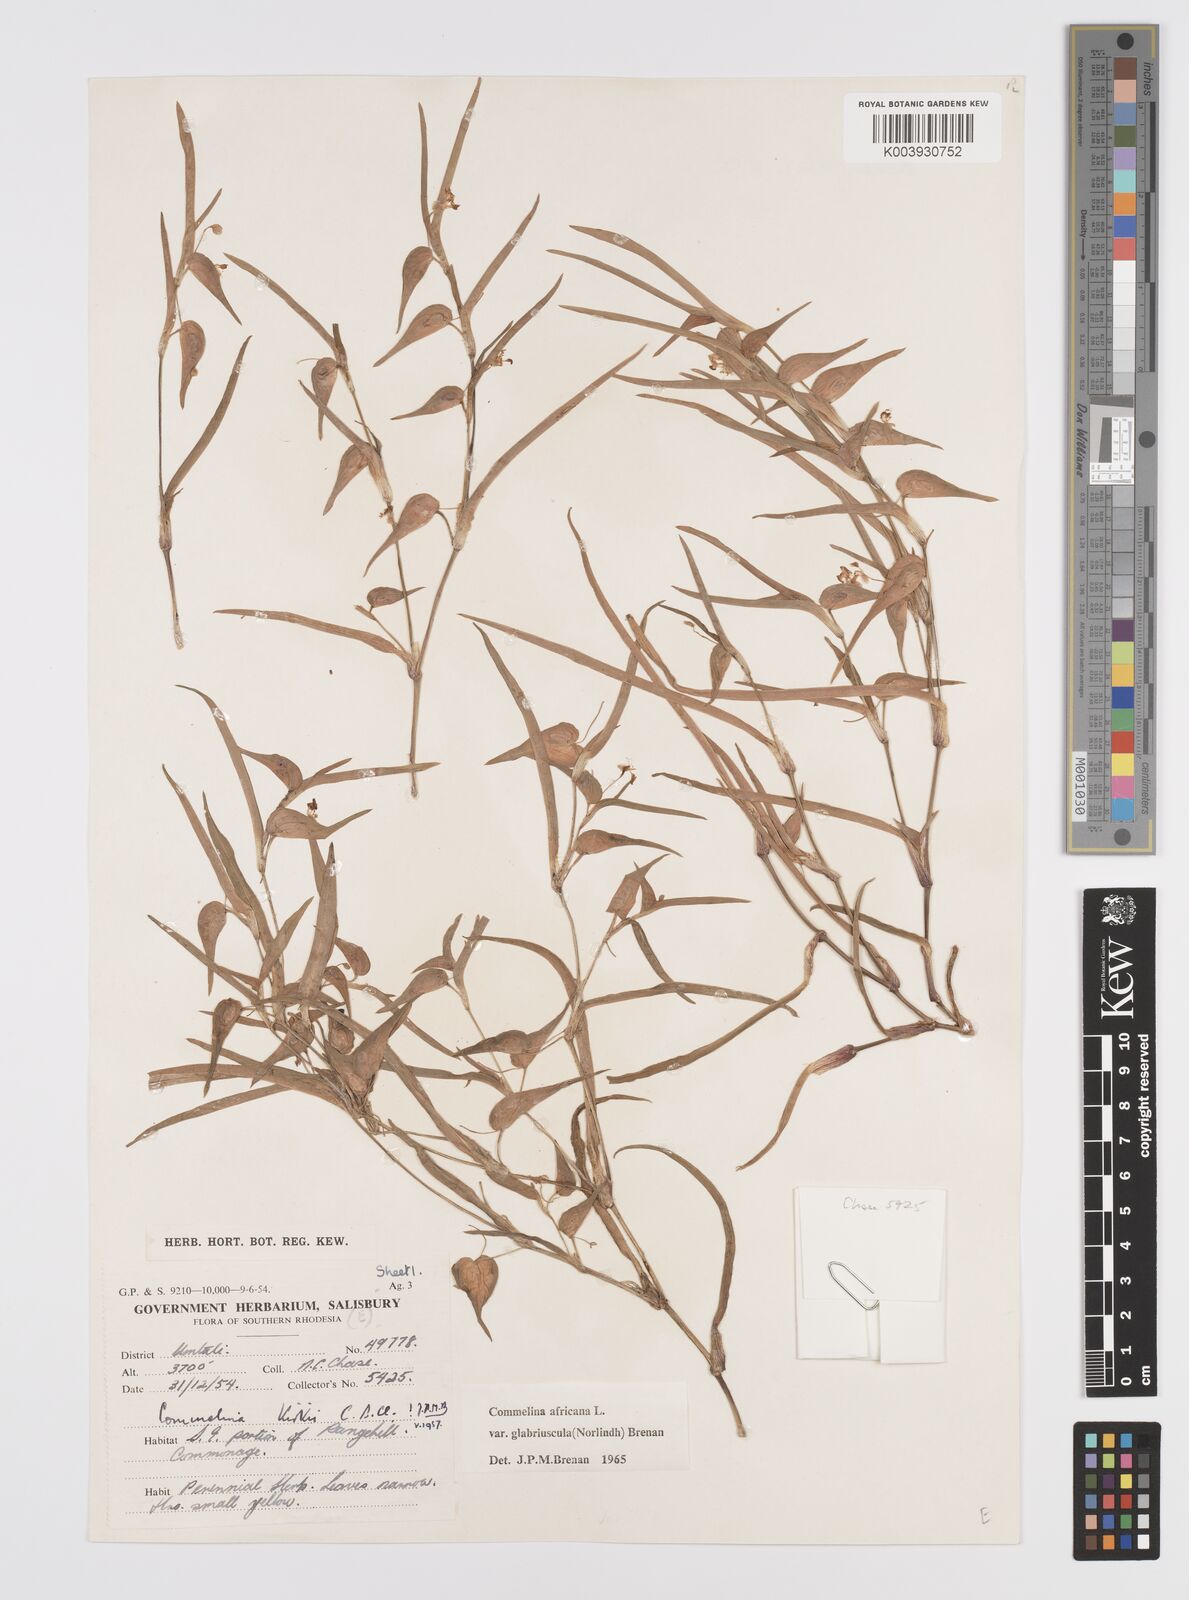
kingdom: Plantae
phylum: Tracheophyta
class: Liliopsida
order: Commelinales
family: Commelinaceae
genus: Commelina
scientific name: Commelina africana
